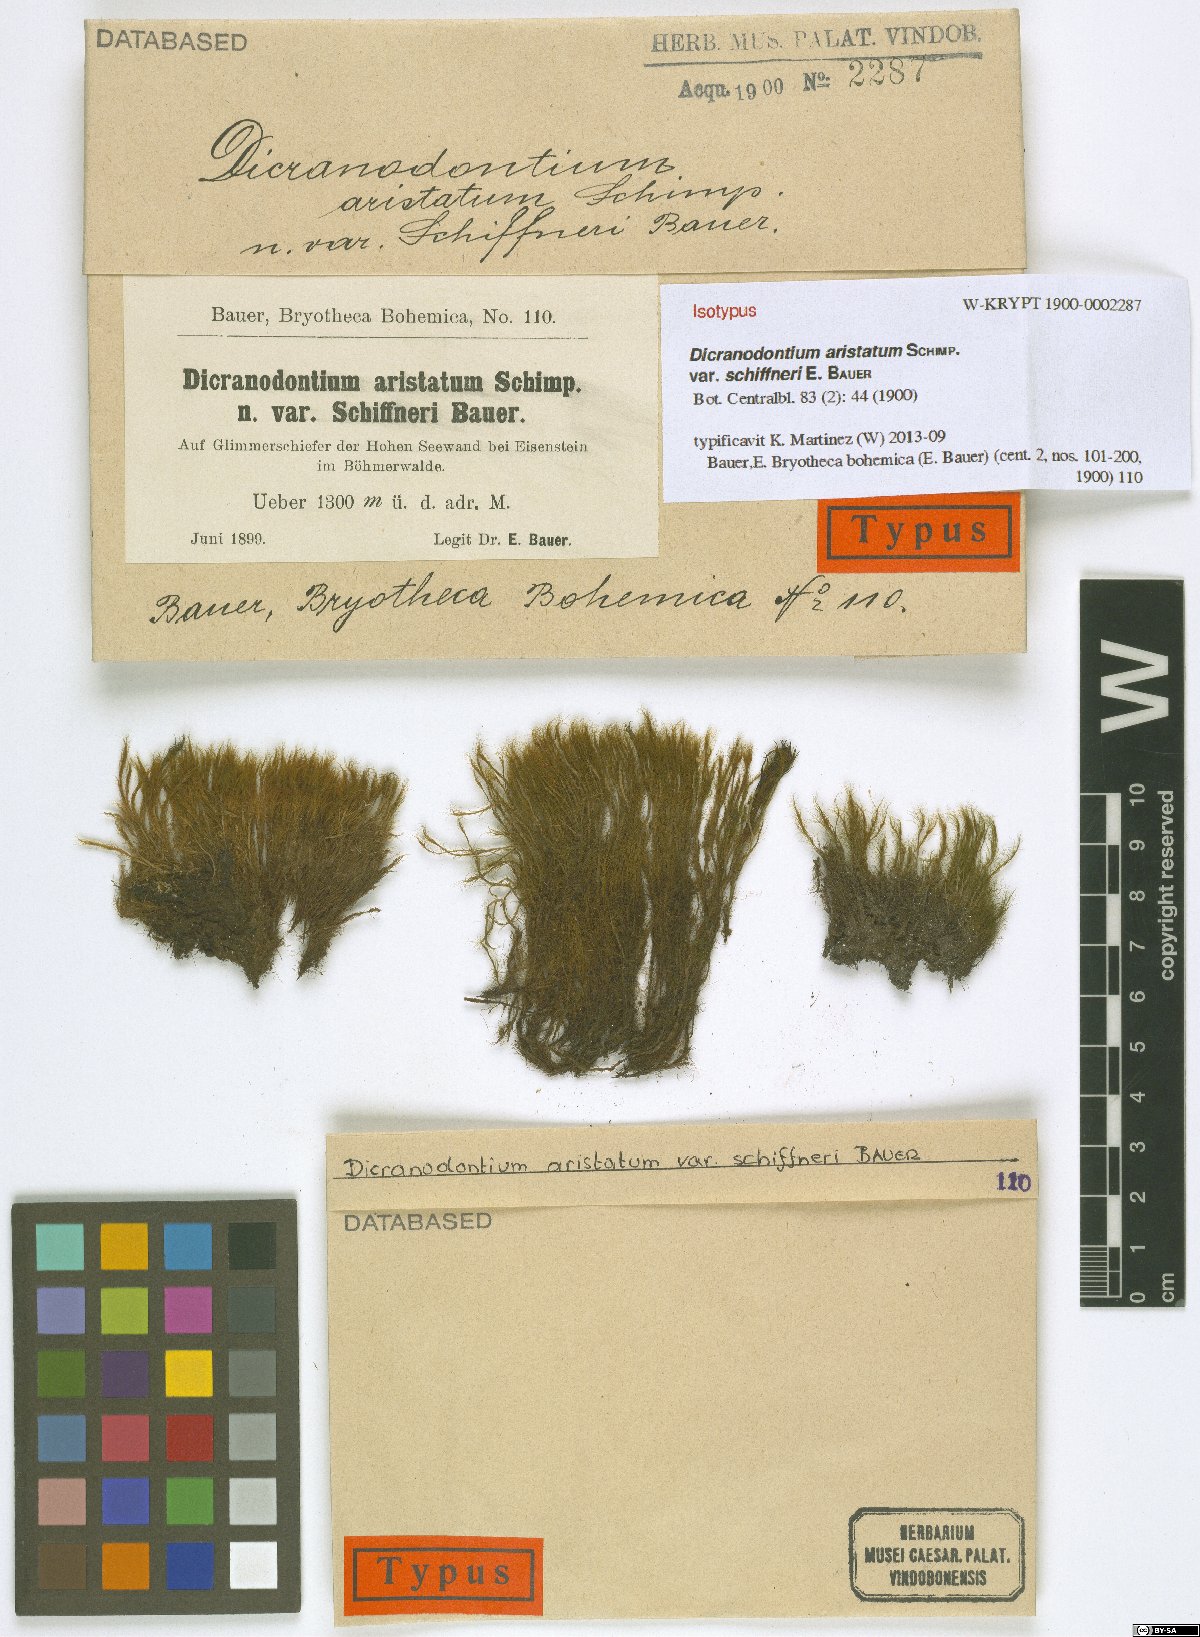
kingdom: Plantae
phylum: Bryophyta
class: Bryopsida
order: Dicranales
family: Leucobryaceae
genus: Dicranodontium
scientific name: Dicranodontium asperulum
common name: Orange bow-moss
